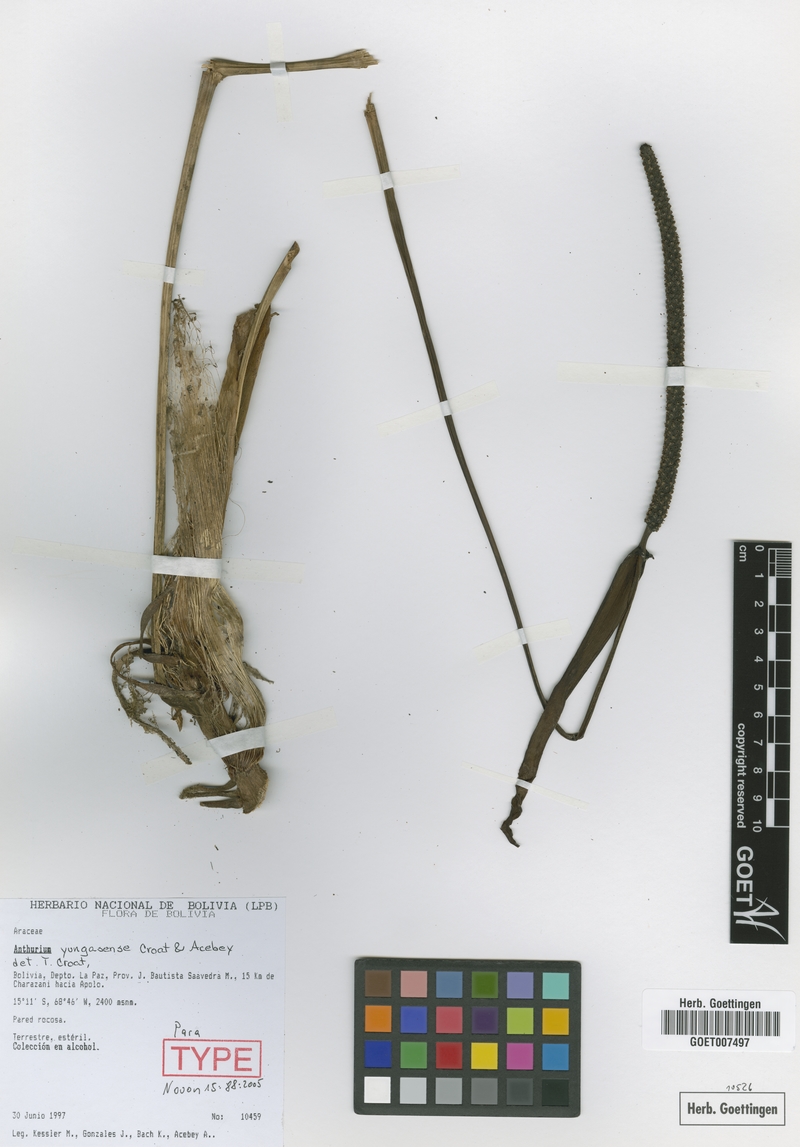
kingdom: Plantae
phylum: Tracheophyta
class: Liliopsida
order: Alismatales
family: Araceae
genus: Anthurium
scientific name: Anthurium yungasense
